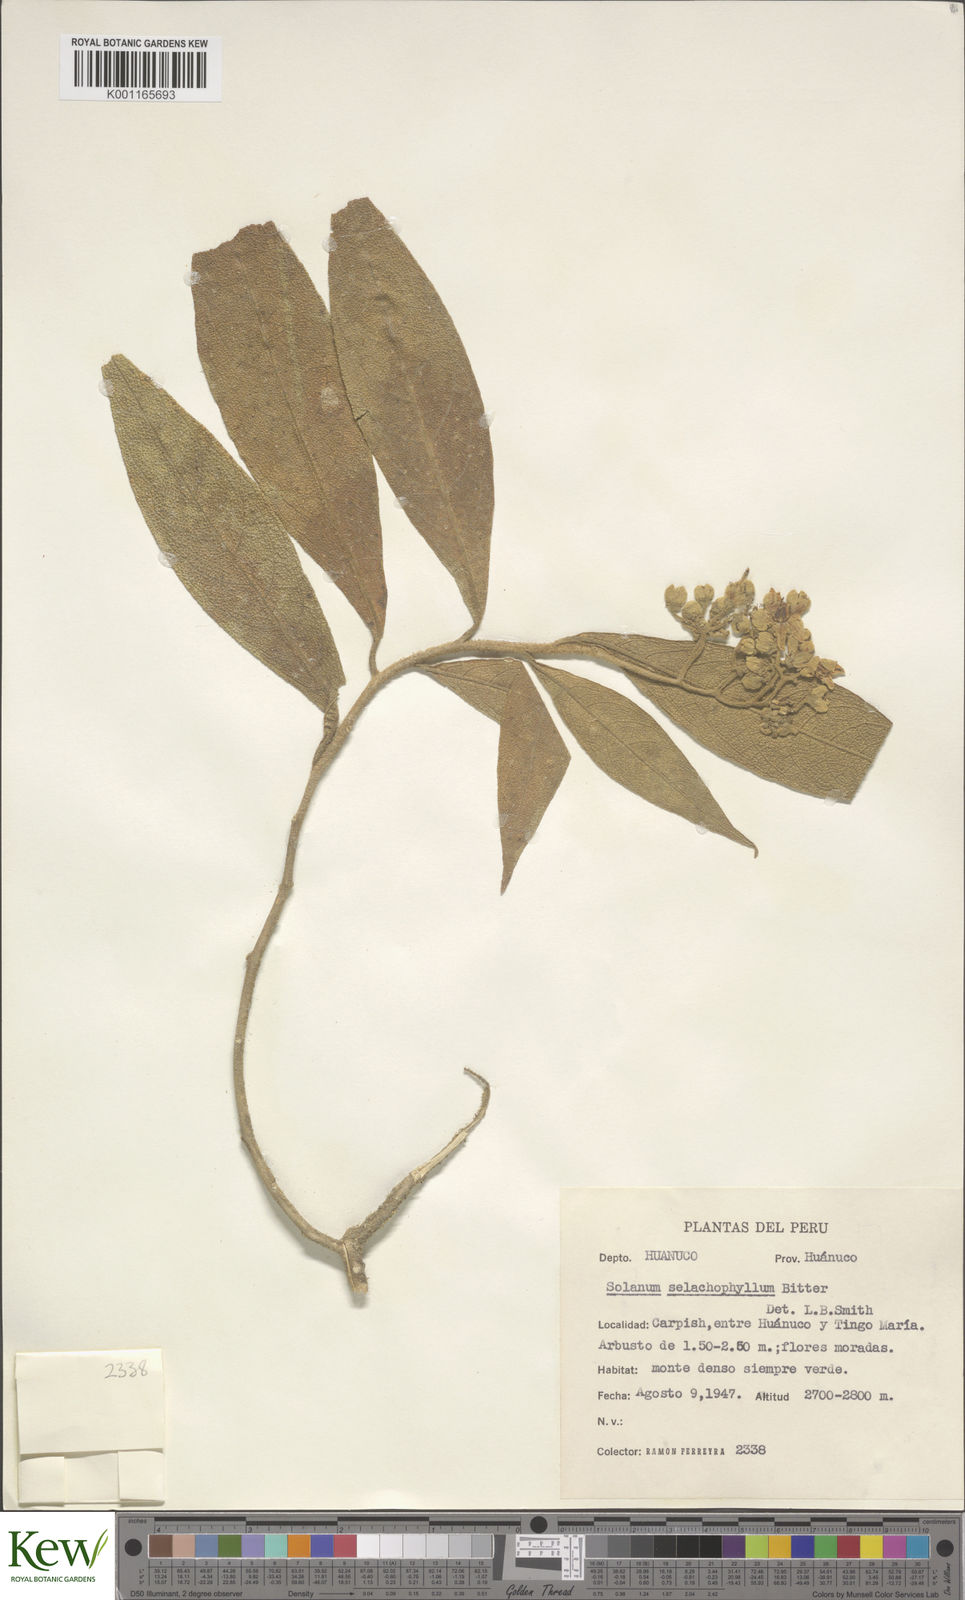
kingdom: Plantae
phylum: Tracheophyta
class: Magnoliopsida
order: Solanales
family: Solanaceae
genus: Solanum
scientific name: Solanum selachophyllum
